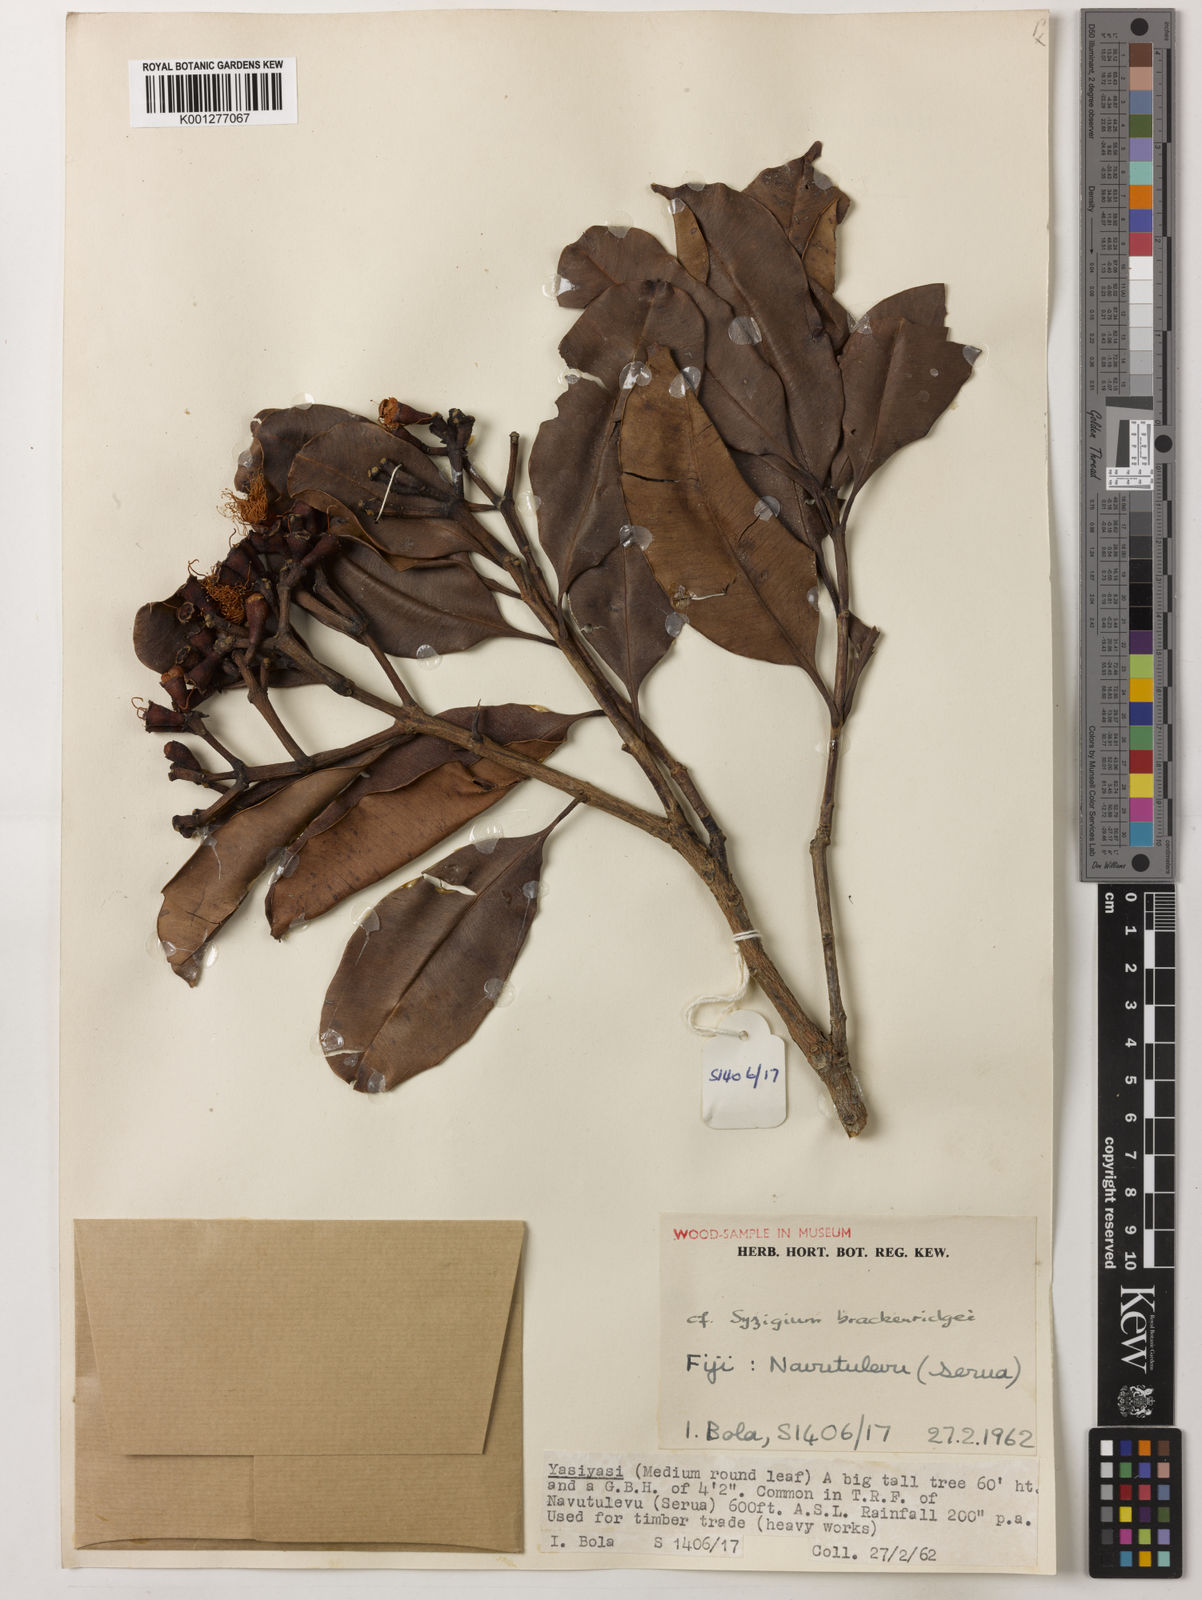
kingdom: Plantae
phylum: Tracheophyta
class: Magnoliopsida
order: Myrtales
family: Myrtaceae
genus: Syzygium
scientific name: Syzygium
